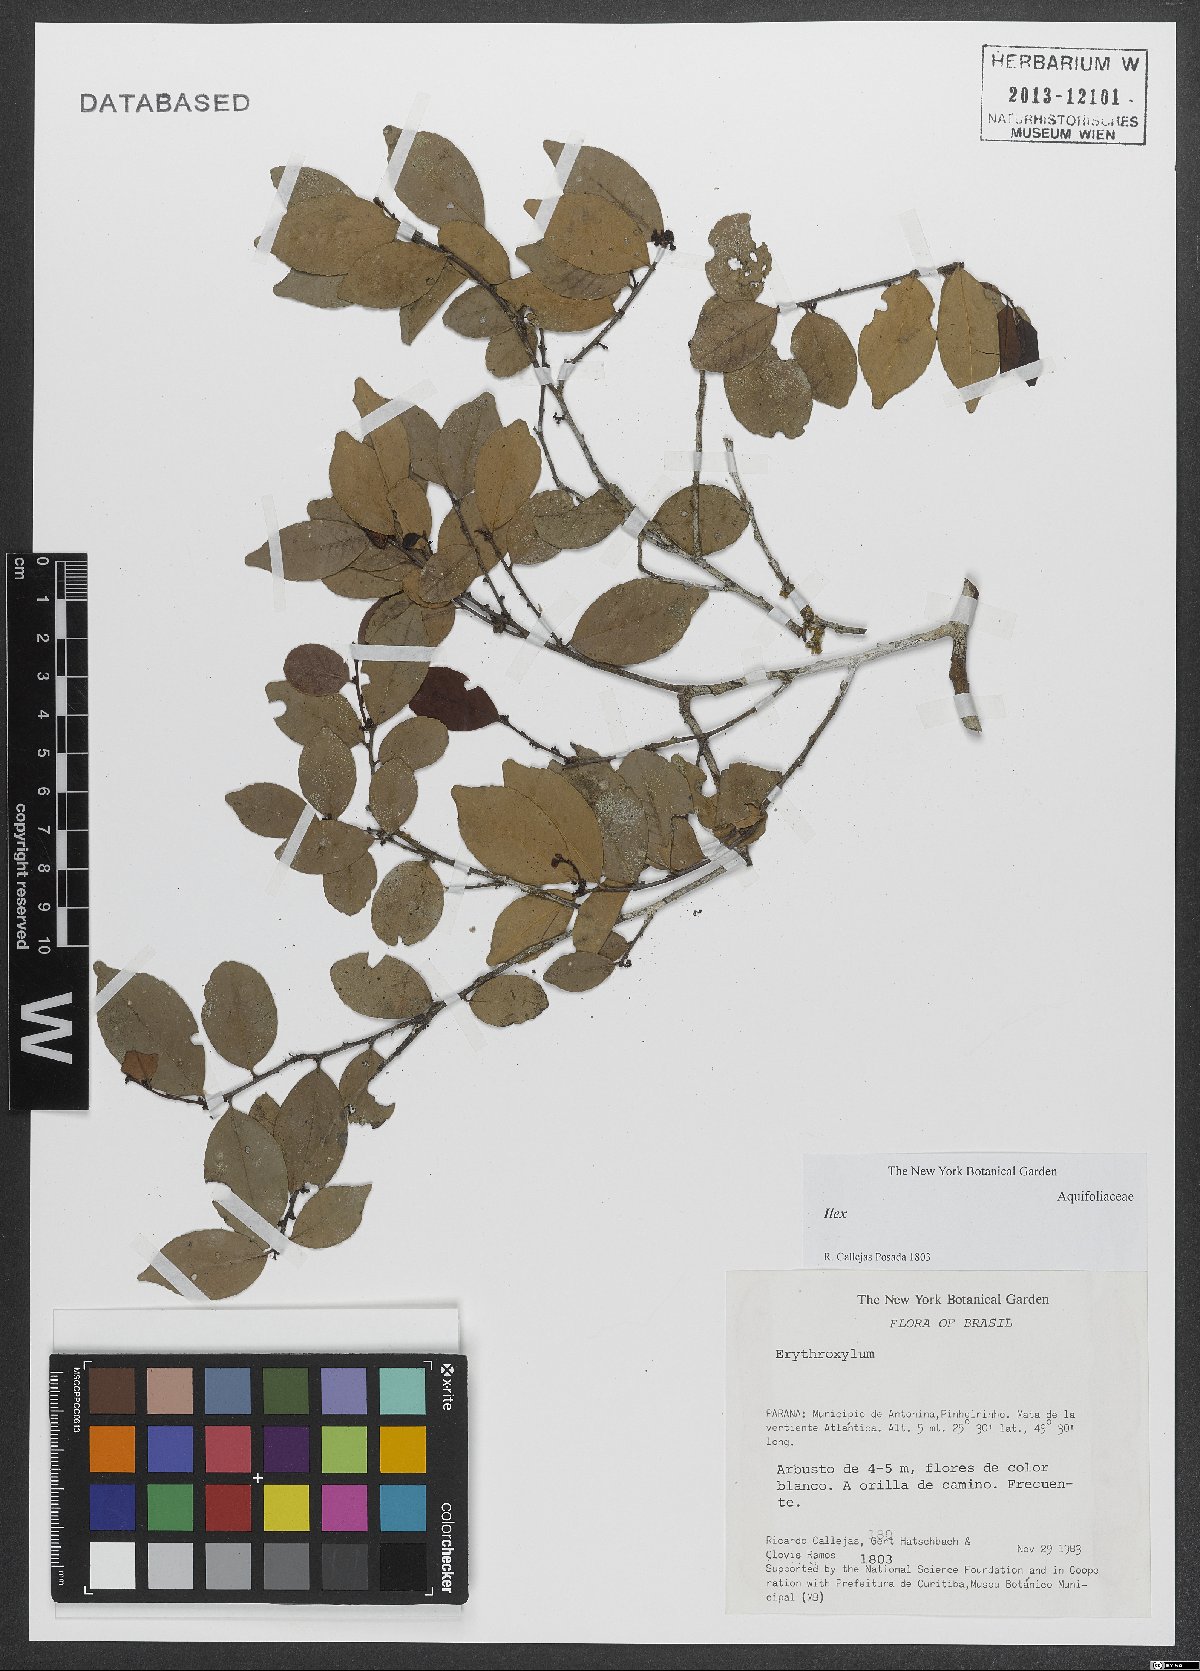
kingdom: Plantae
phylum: Tracheophyta
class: Magnoliopsida
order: Aquifoliales
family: Aquifoliaceae
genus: Ilex
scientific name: Ilex
